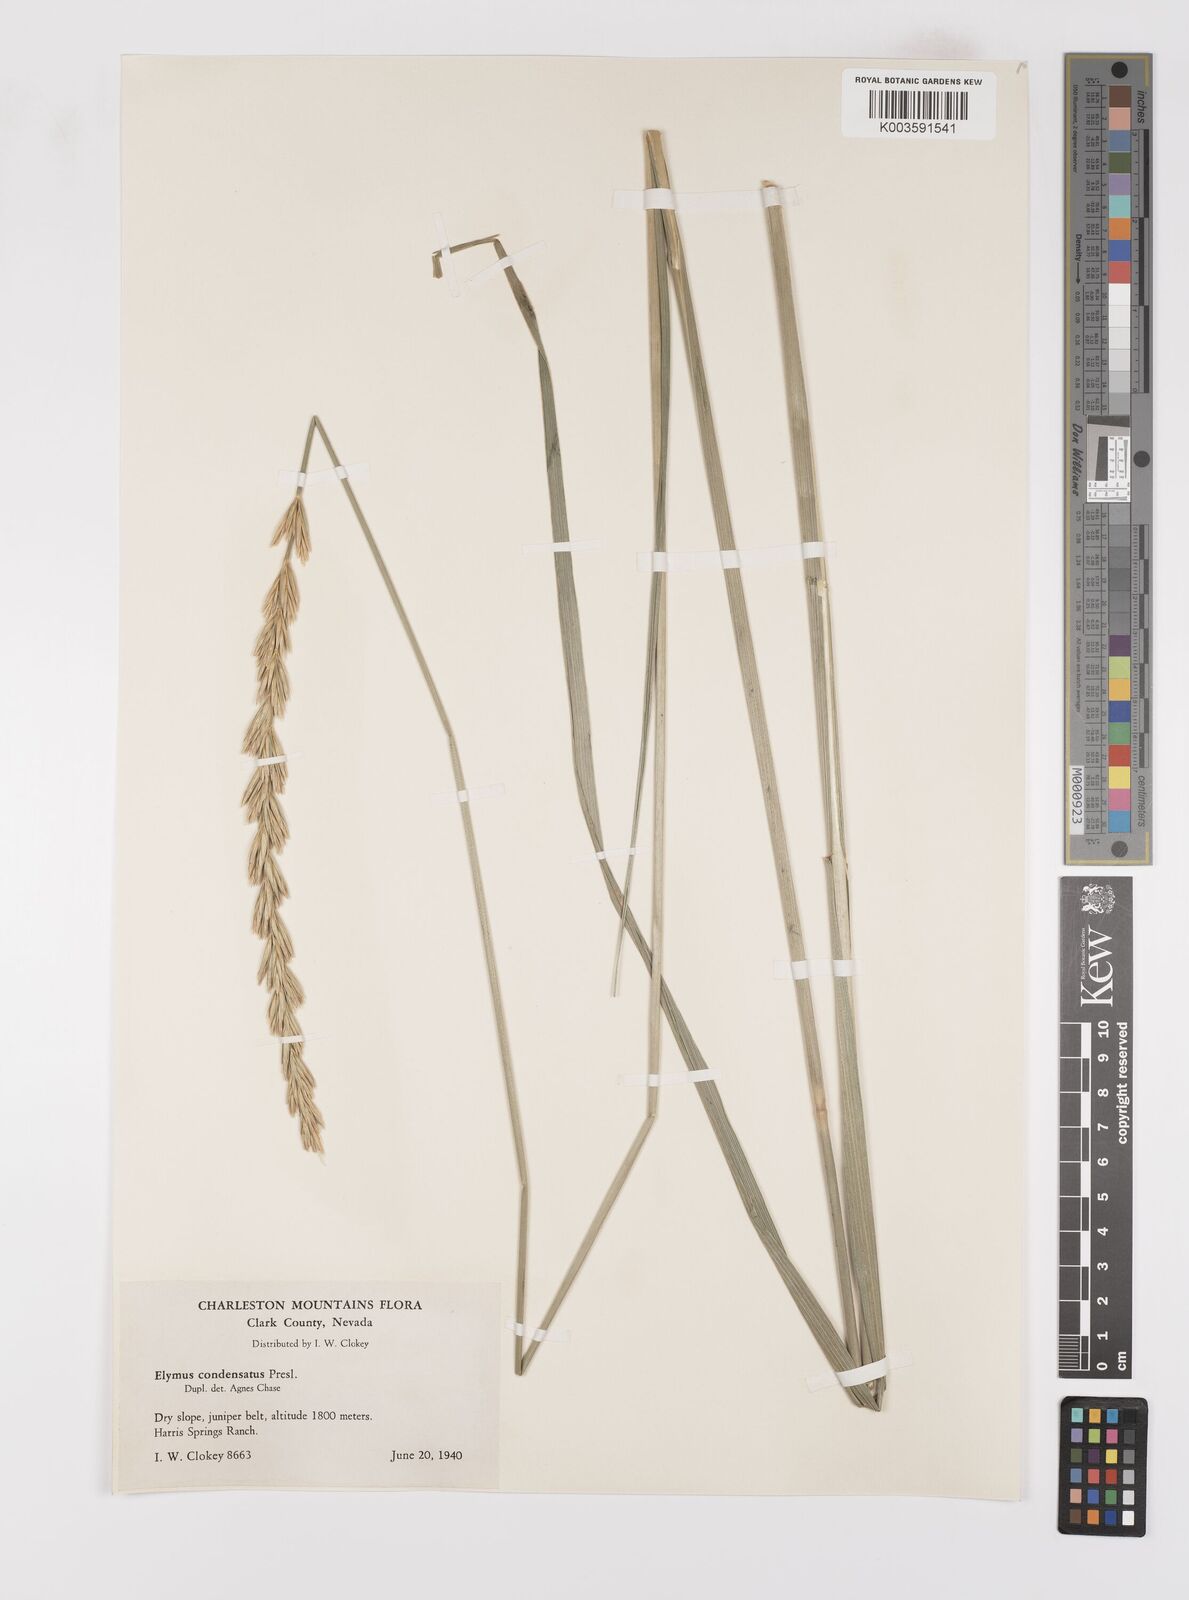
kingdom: Plantae
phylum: Tracheophyta
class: Liliopsida
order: Poales
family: Poaceae
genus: Leymus
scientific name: Leymus condensatus
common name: Giant wild rye
